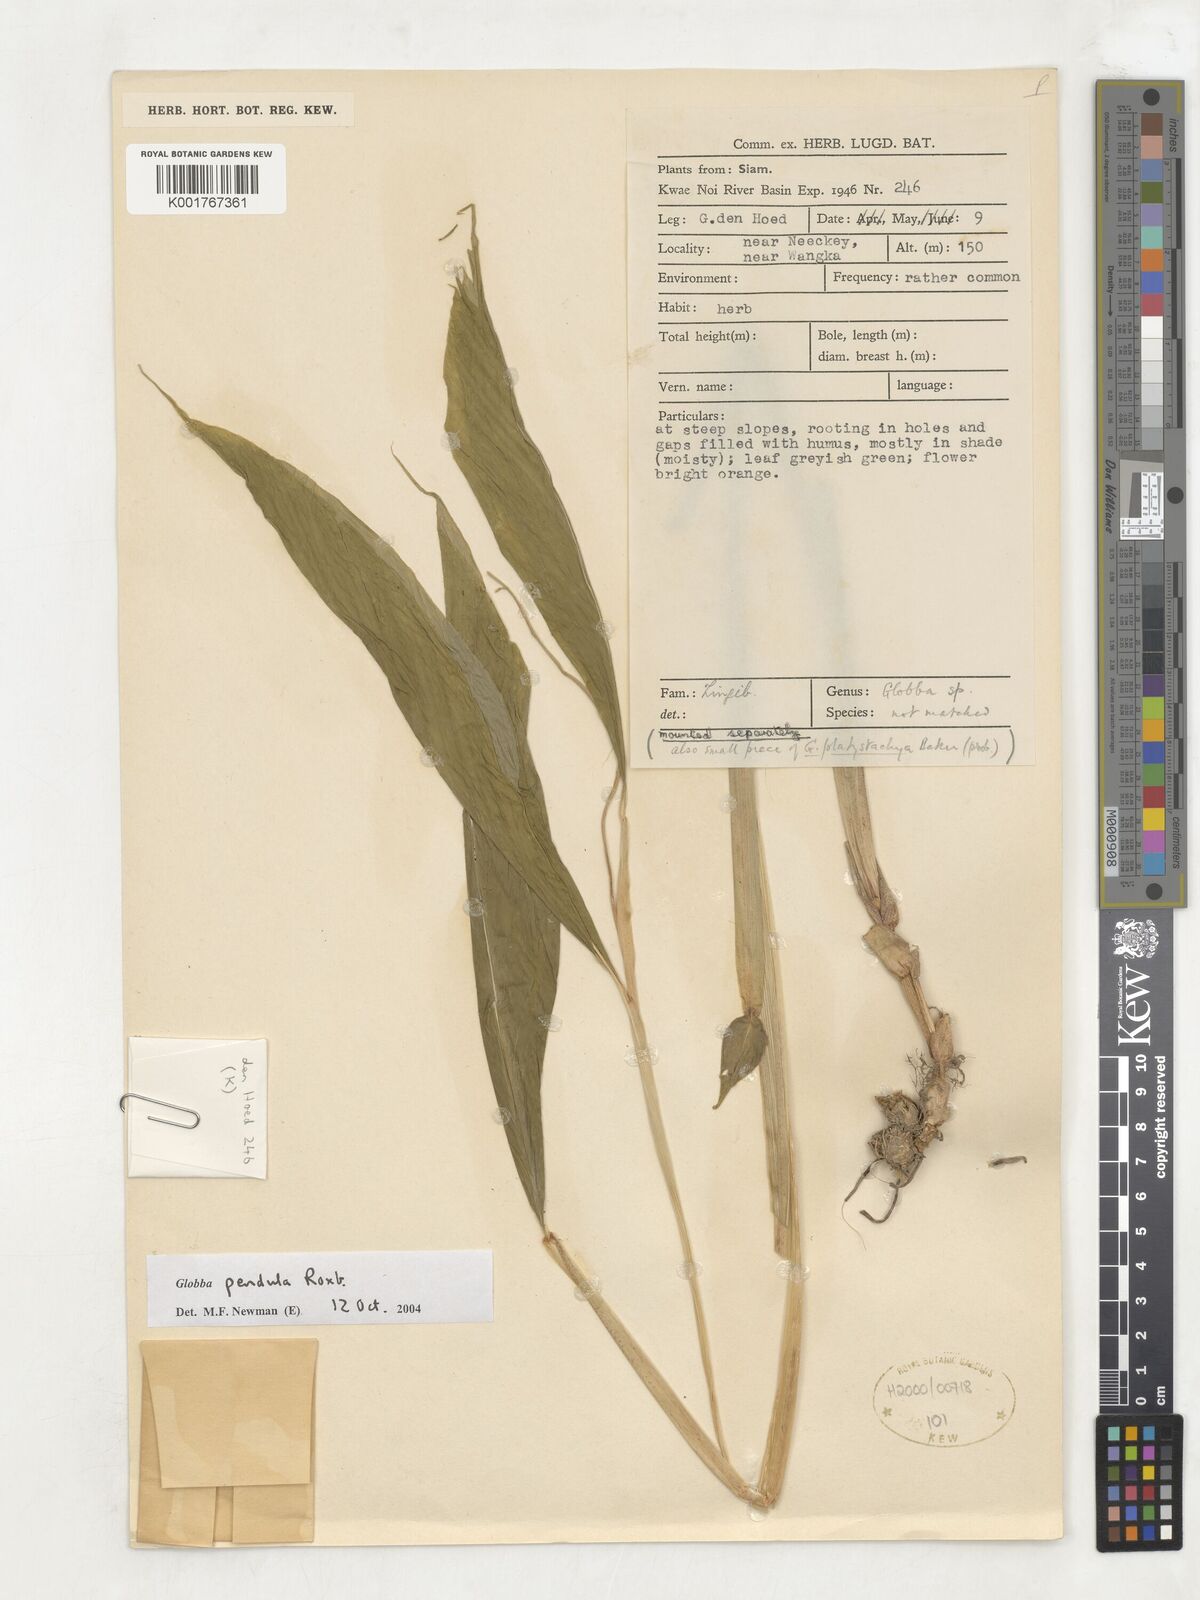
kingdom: Plantae
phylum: Tracheophyta
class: Liliopsida
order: Zingiberales
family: Zingiberaceae
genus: Globba
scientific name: Globba pendula
